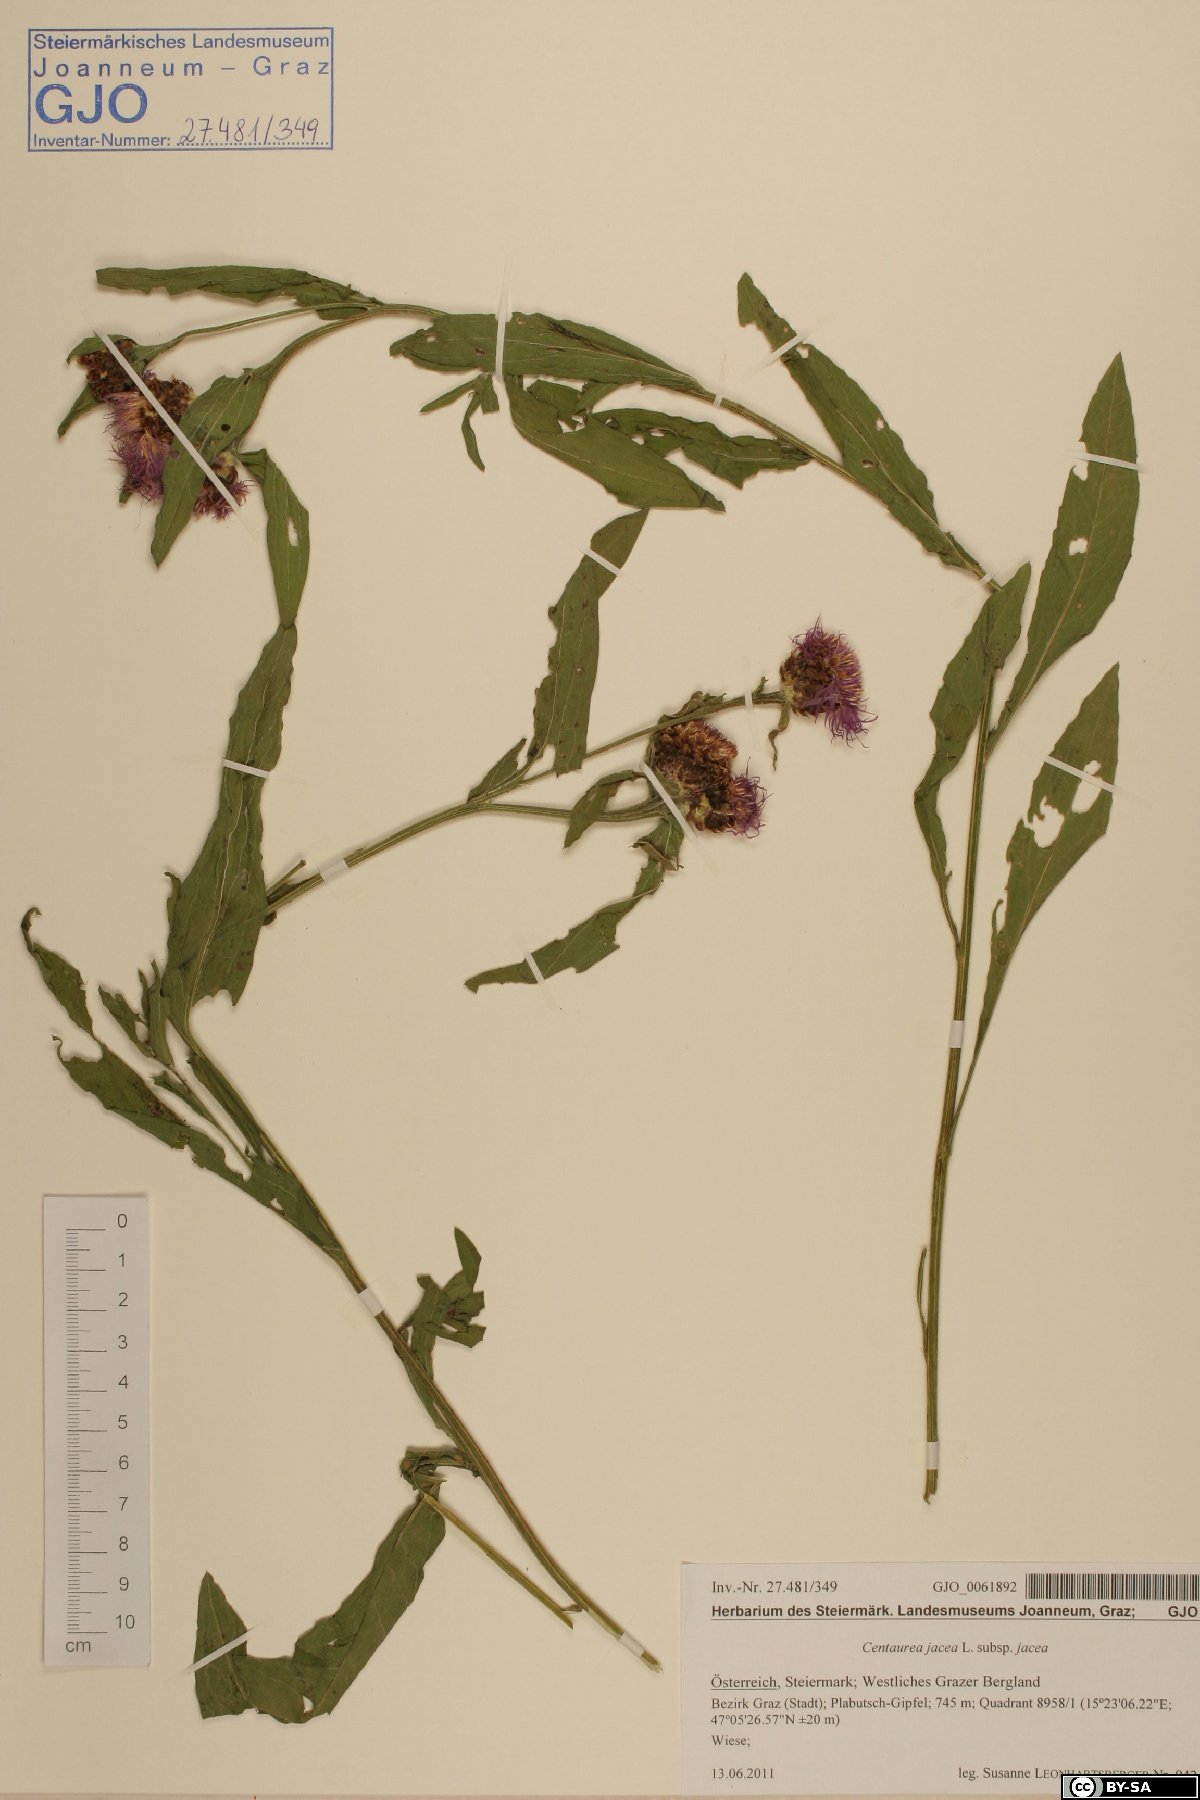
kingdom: Plantae
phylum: Tracheophyta
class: Magnoliopsida
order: Asterales
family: Asteraceae
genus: Centaurea
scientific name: Centaurea jacea
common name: Brown knapweed
